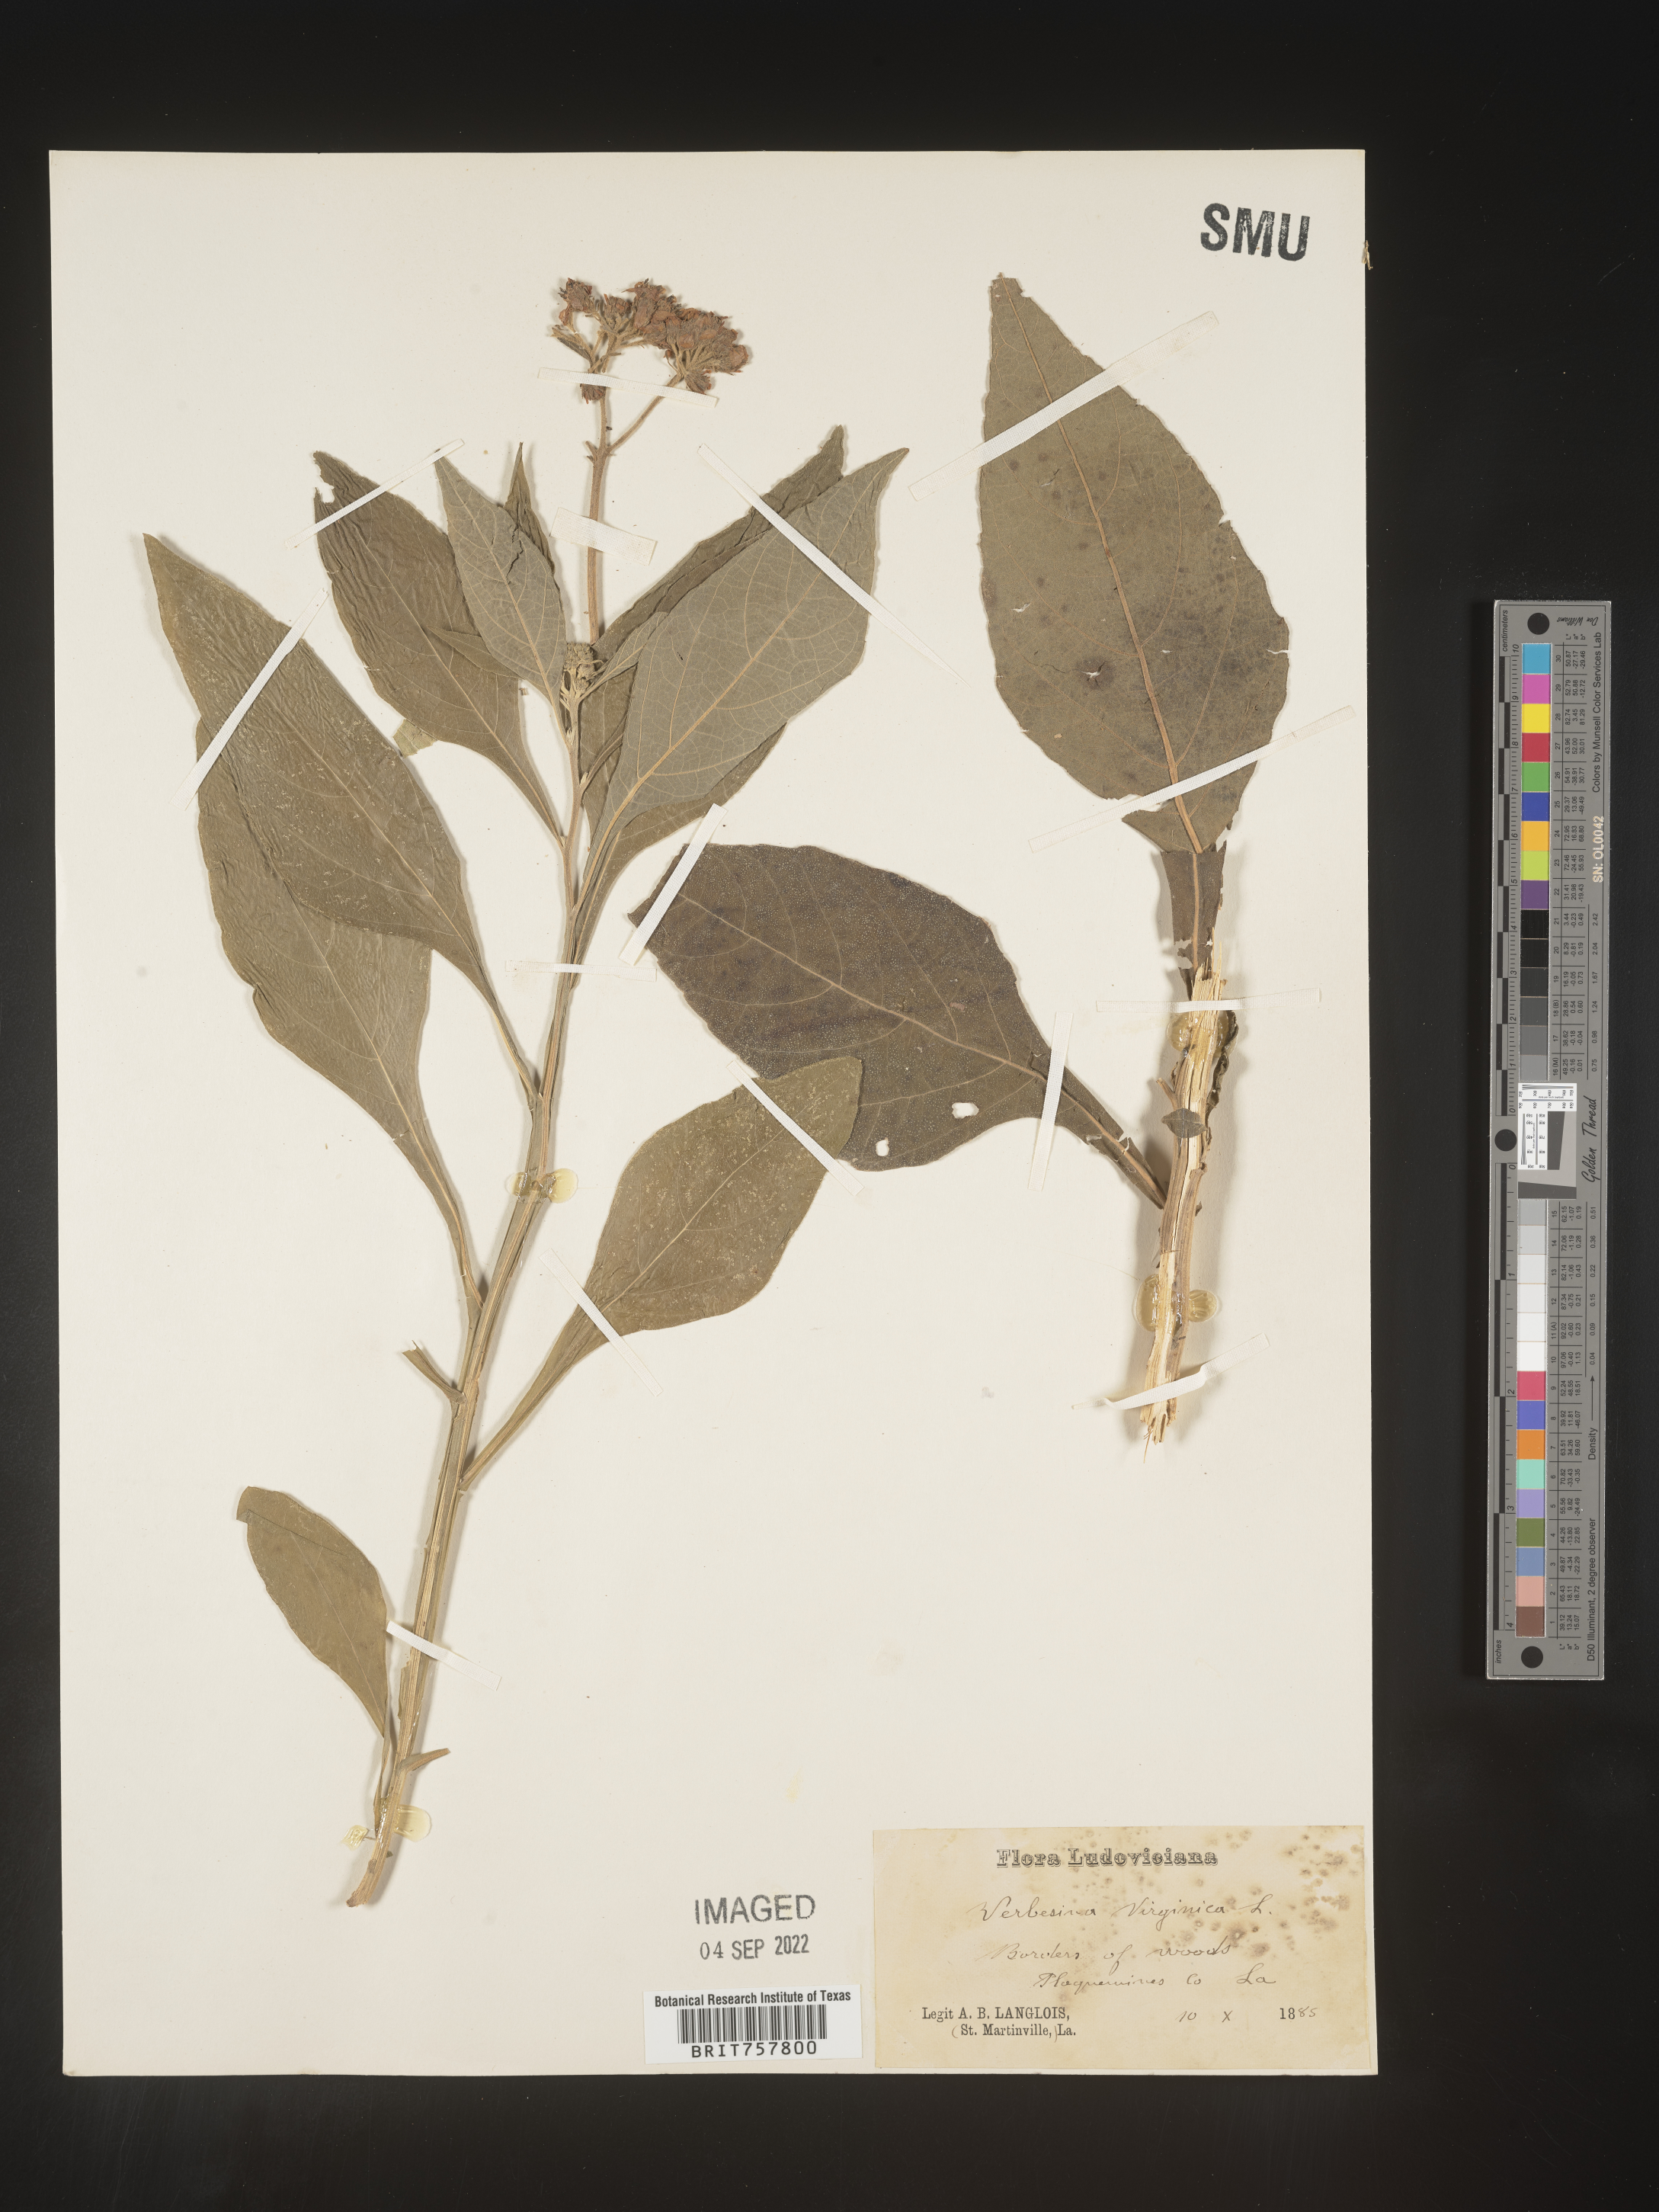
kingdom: Plantae
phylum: Tracheophyta
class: Magnoliopsida
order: Asterales
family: Asteraceae
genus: Verbesina
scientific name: Verbesina virginica
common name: Frostweed
